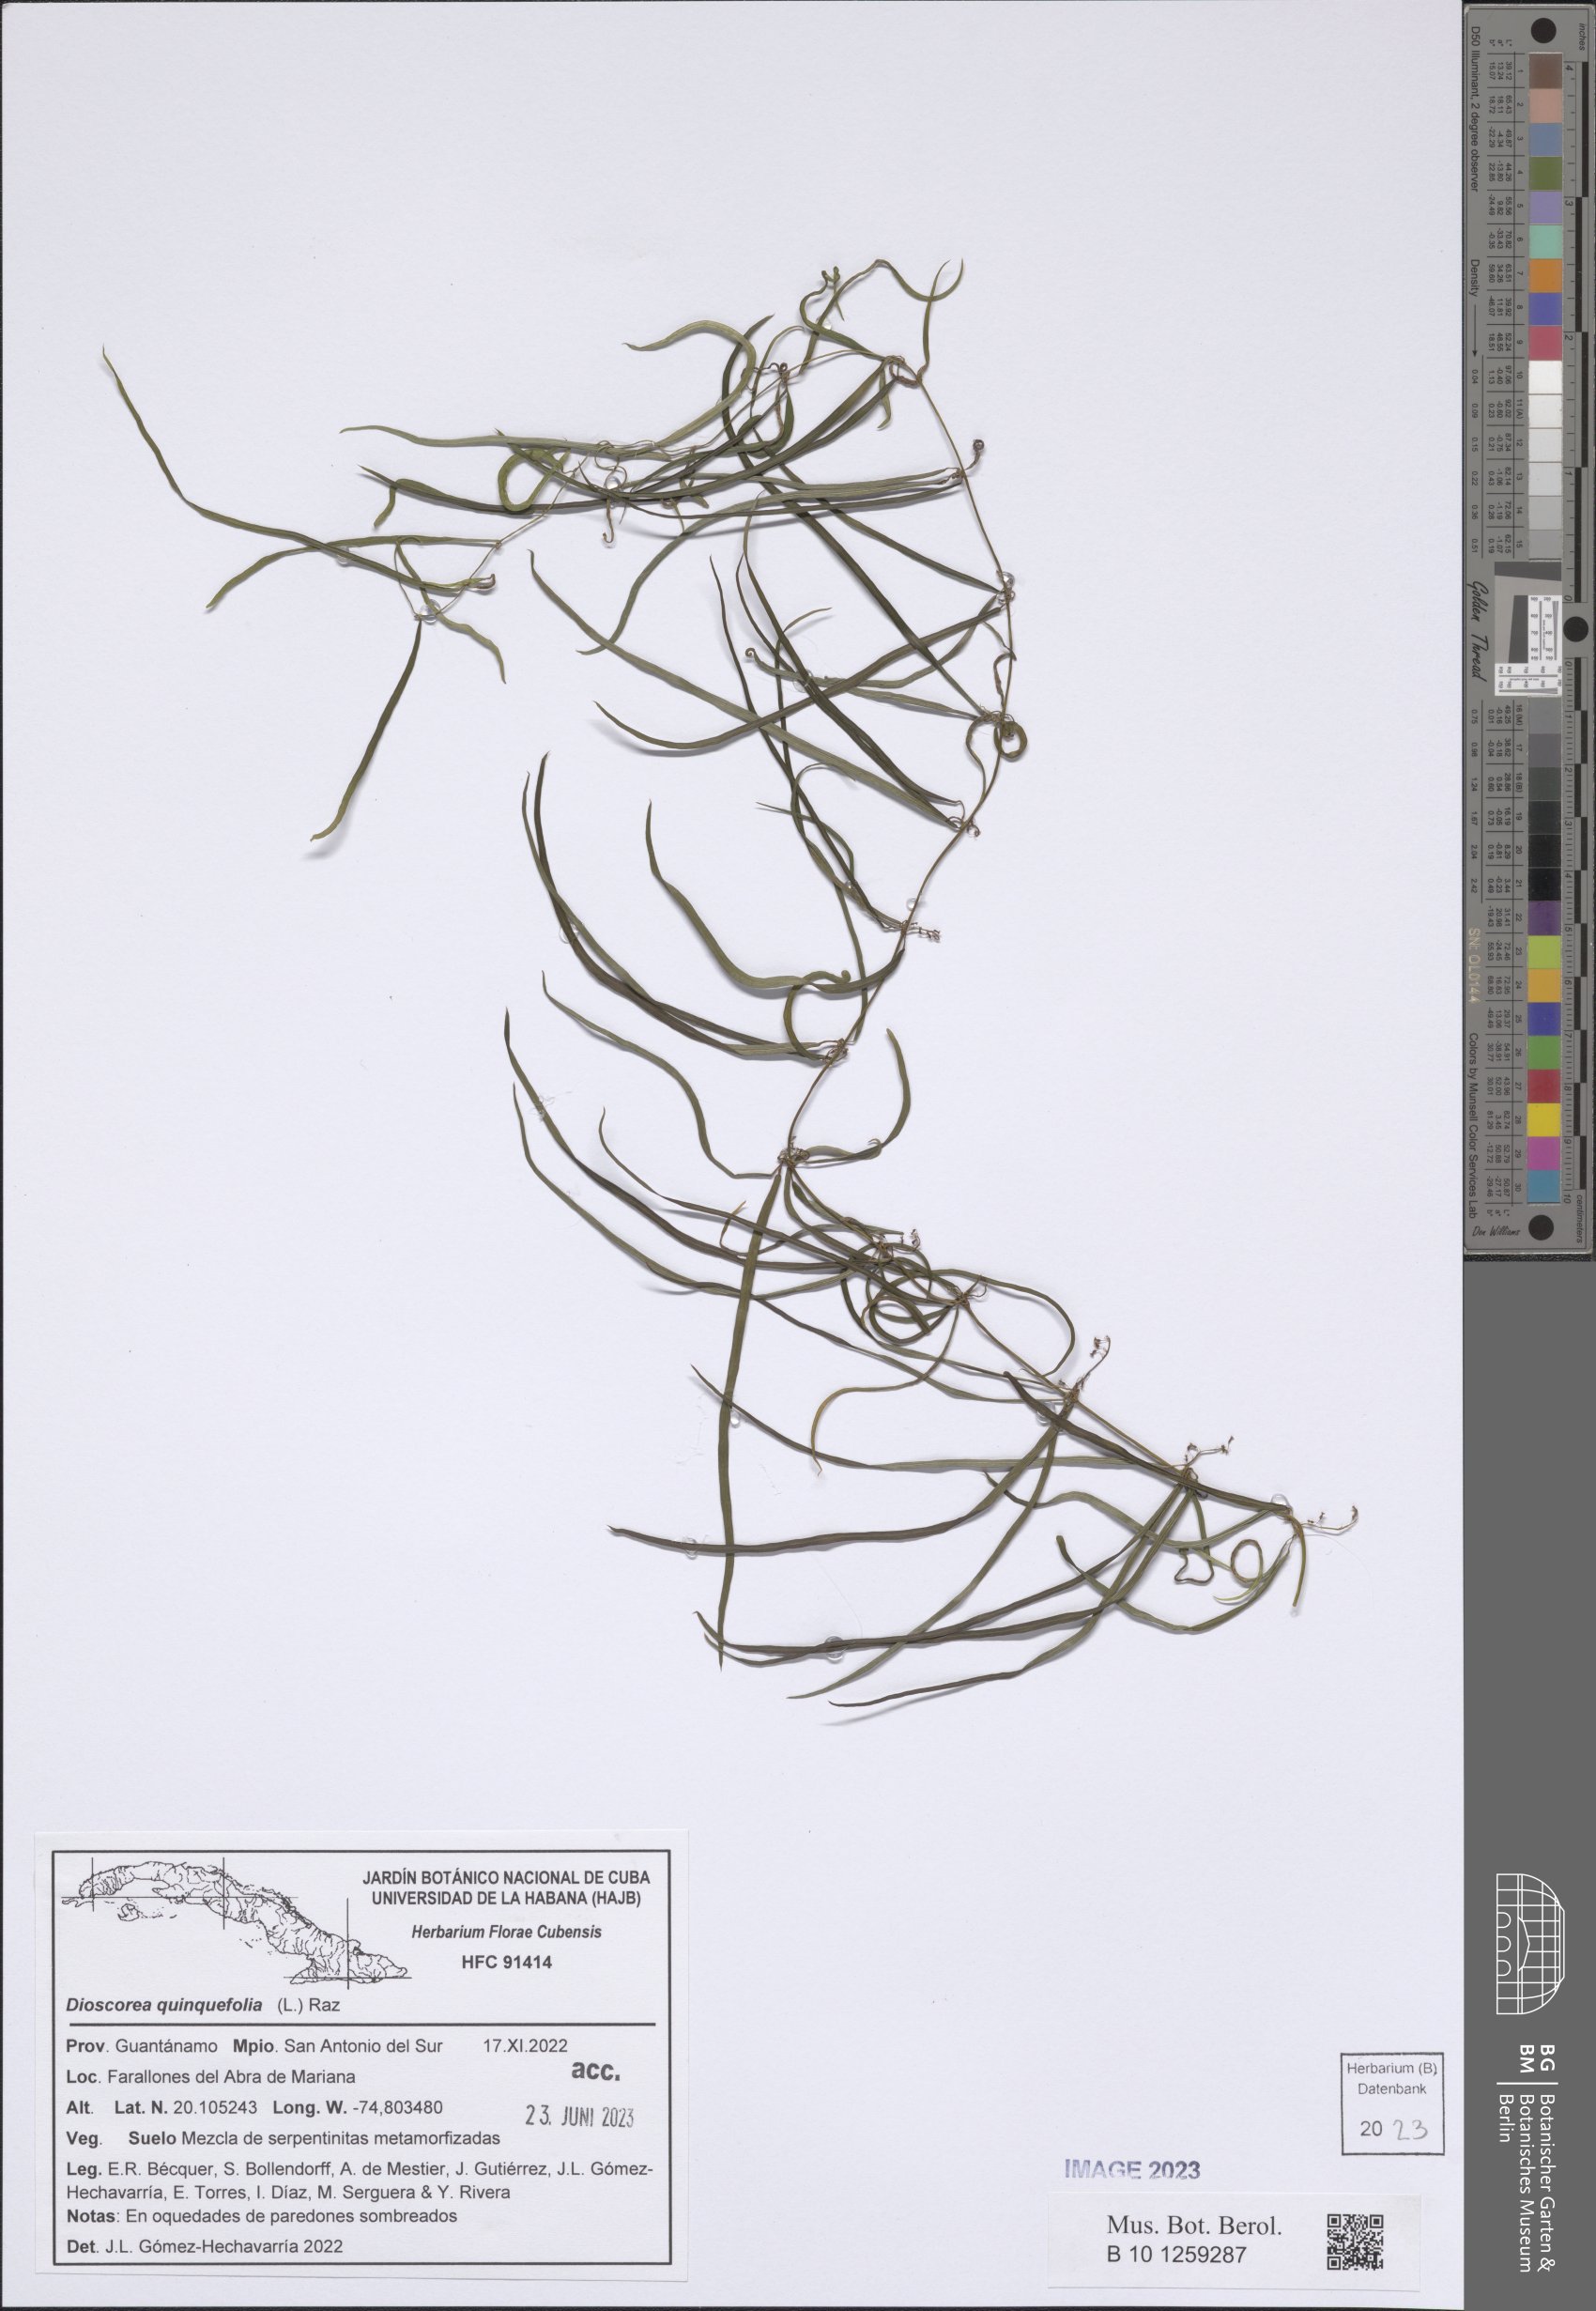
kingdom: Plantae
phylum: Tracheophyta
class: Liliopsida
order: Dioscoreales
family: Dioscoreaceae
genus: Dioscorea
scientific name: Dioscorea quinquefolia
